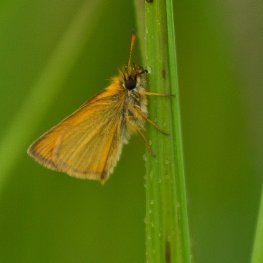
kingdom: Animalia
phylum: Arthropoda
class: Insecta
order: Lepidoptera
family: Hesperiidae
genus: Thymelicus
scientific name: Thymelicus lineola
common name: European Skipper
